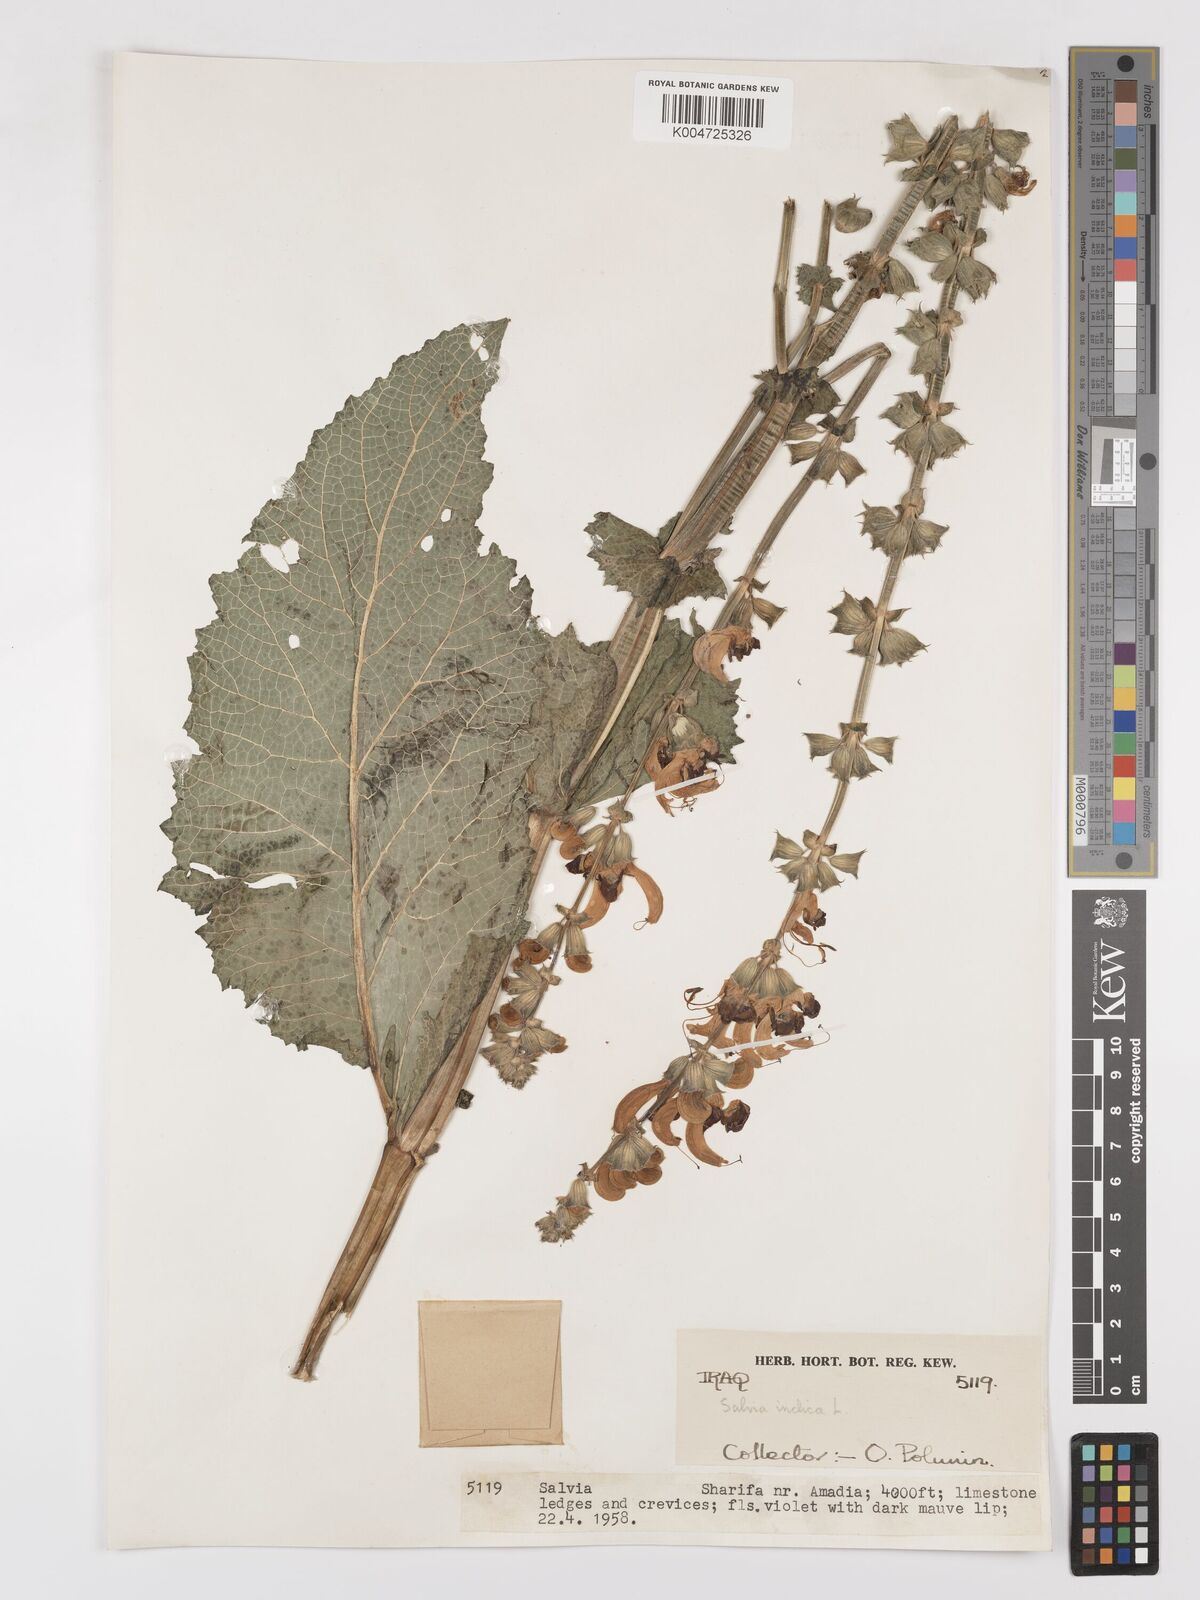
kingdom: Plantae
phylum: Tracheophyta
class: Magnoliopsida
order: Lamiales
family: Lamiaceae
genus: Salvia
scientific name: Salvia indica
